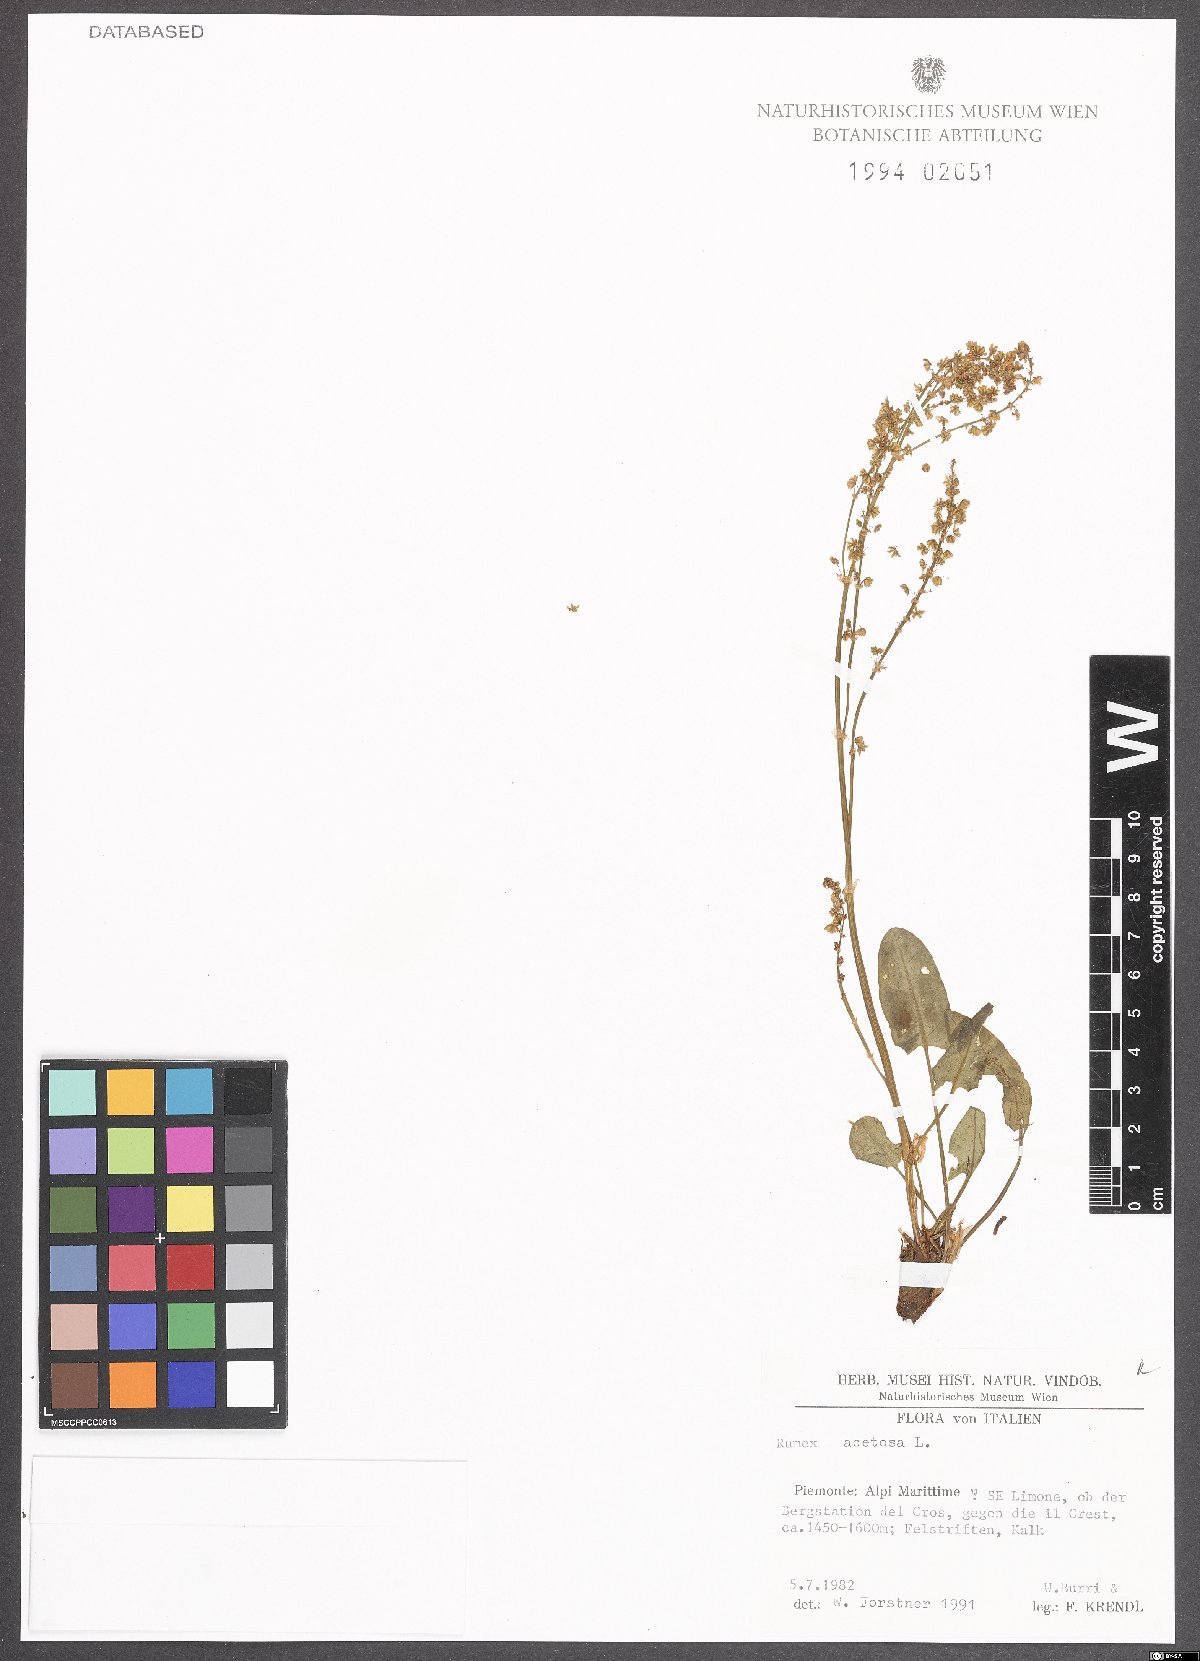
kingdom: Plantae
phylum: Tracheophyta
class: Magnoliopsida
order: Caryophyllales
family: Polygonaceae
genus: Rumex
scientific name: Rumex acetosa
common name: Garden sorrel
